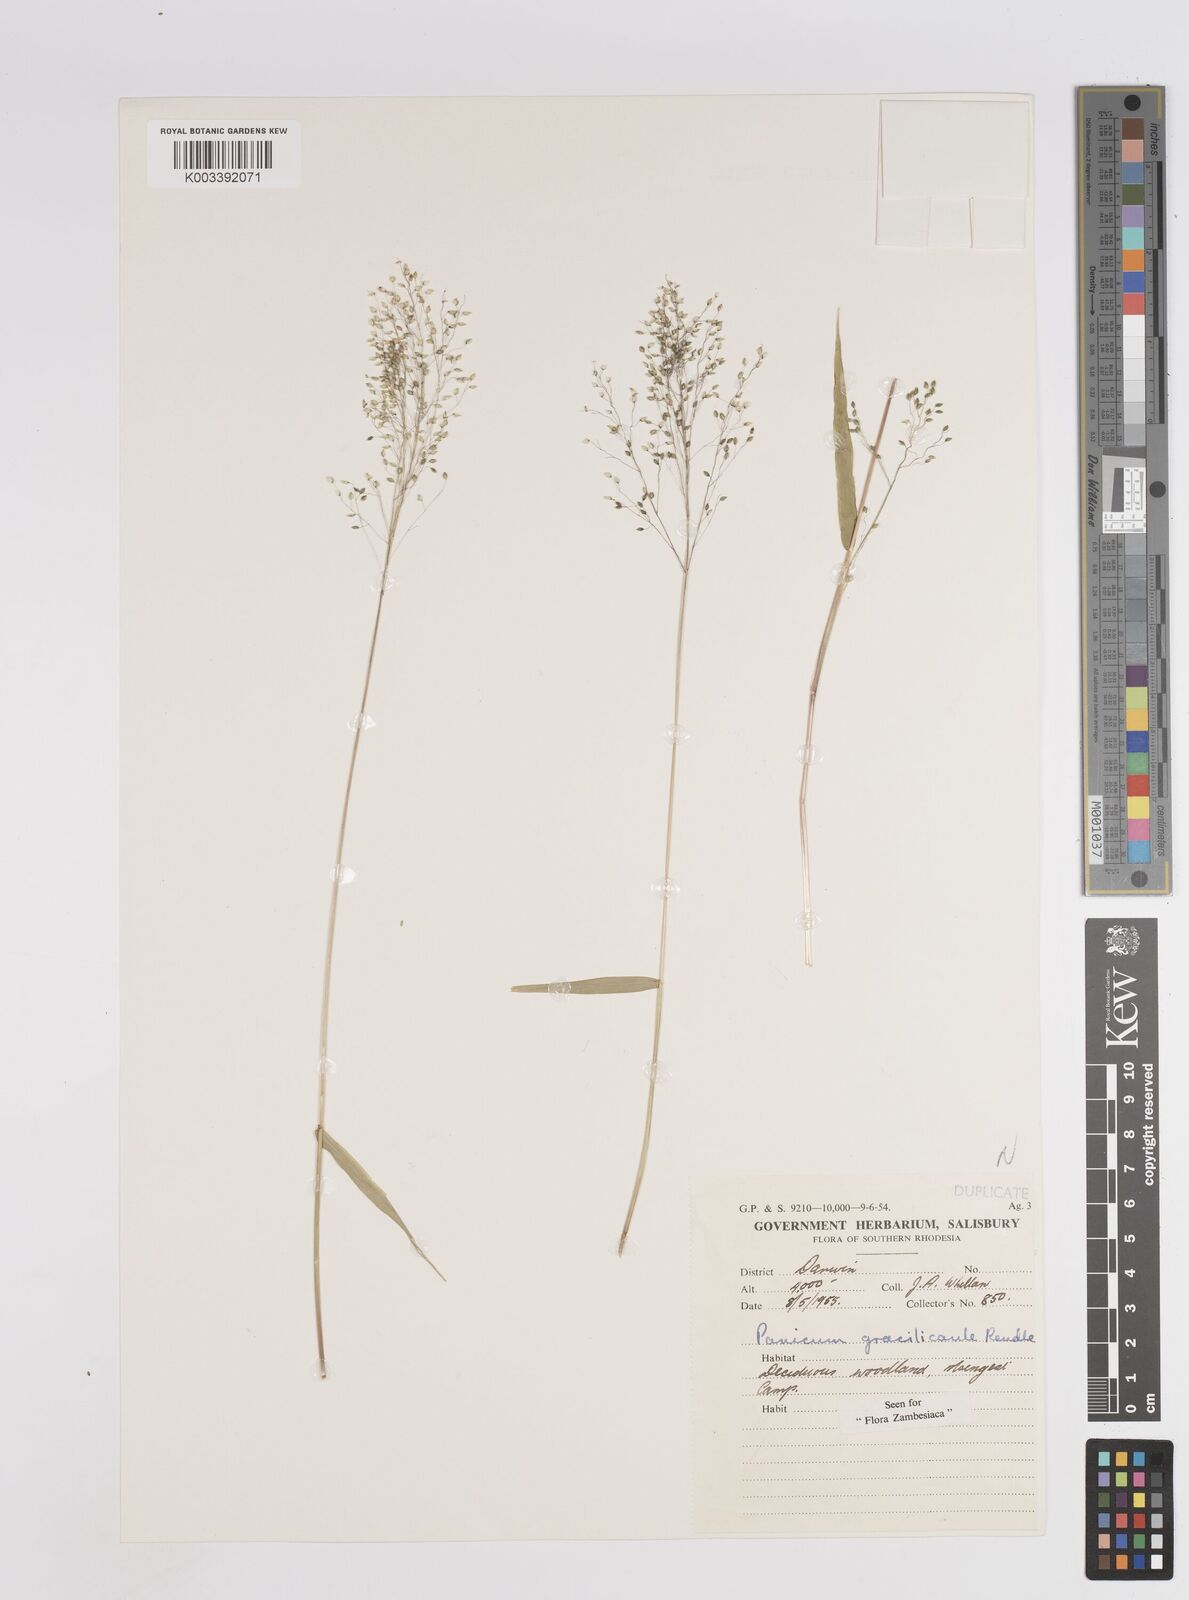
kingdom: Plantae
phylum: Tracheophyta
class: Liliopsida
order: Poales
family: Poaceae
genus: Trichanthecium
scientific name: Trichanthecium gracilicaule
